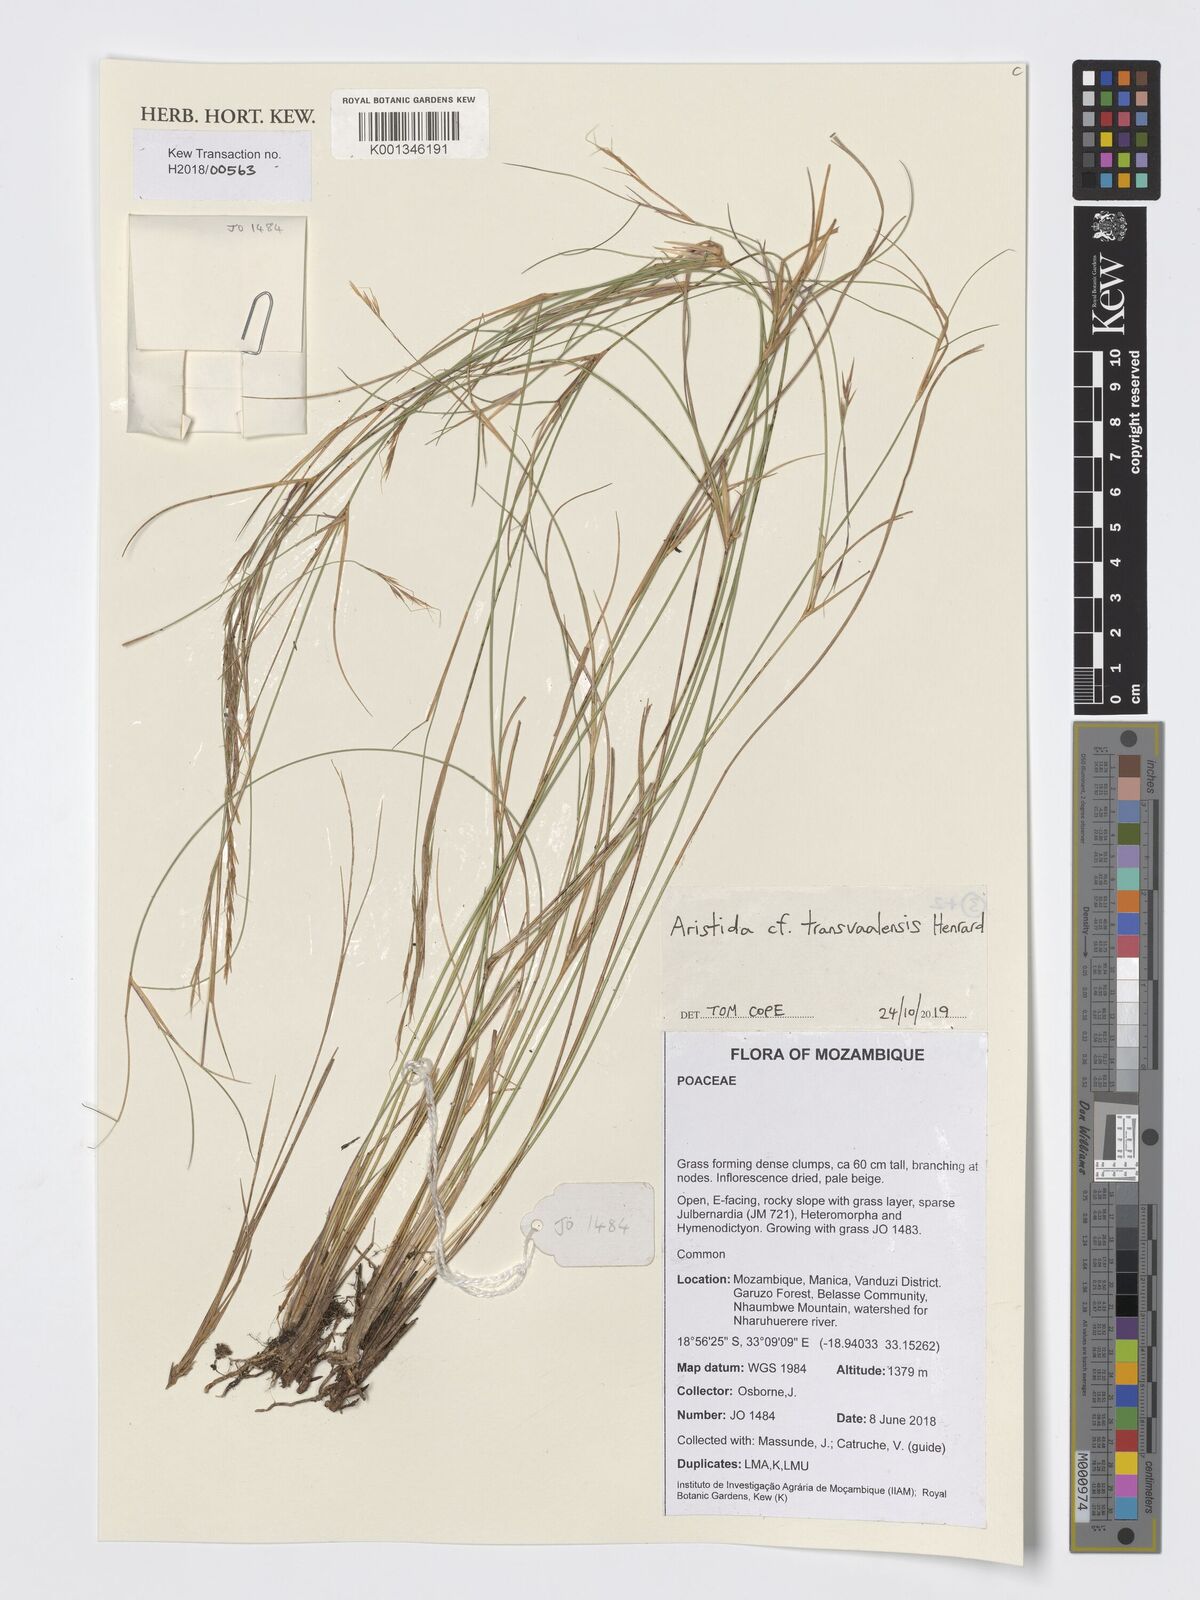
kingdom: Plantae
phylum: Tracheophyta
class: Liliopsida
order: Poales
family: Poaceae
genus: Aristida
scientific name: Aristida transvaalensis
